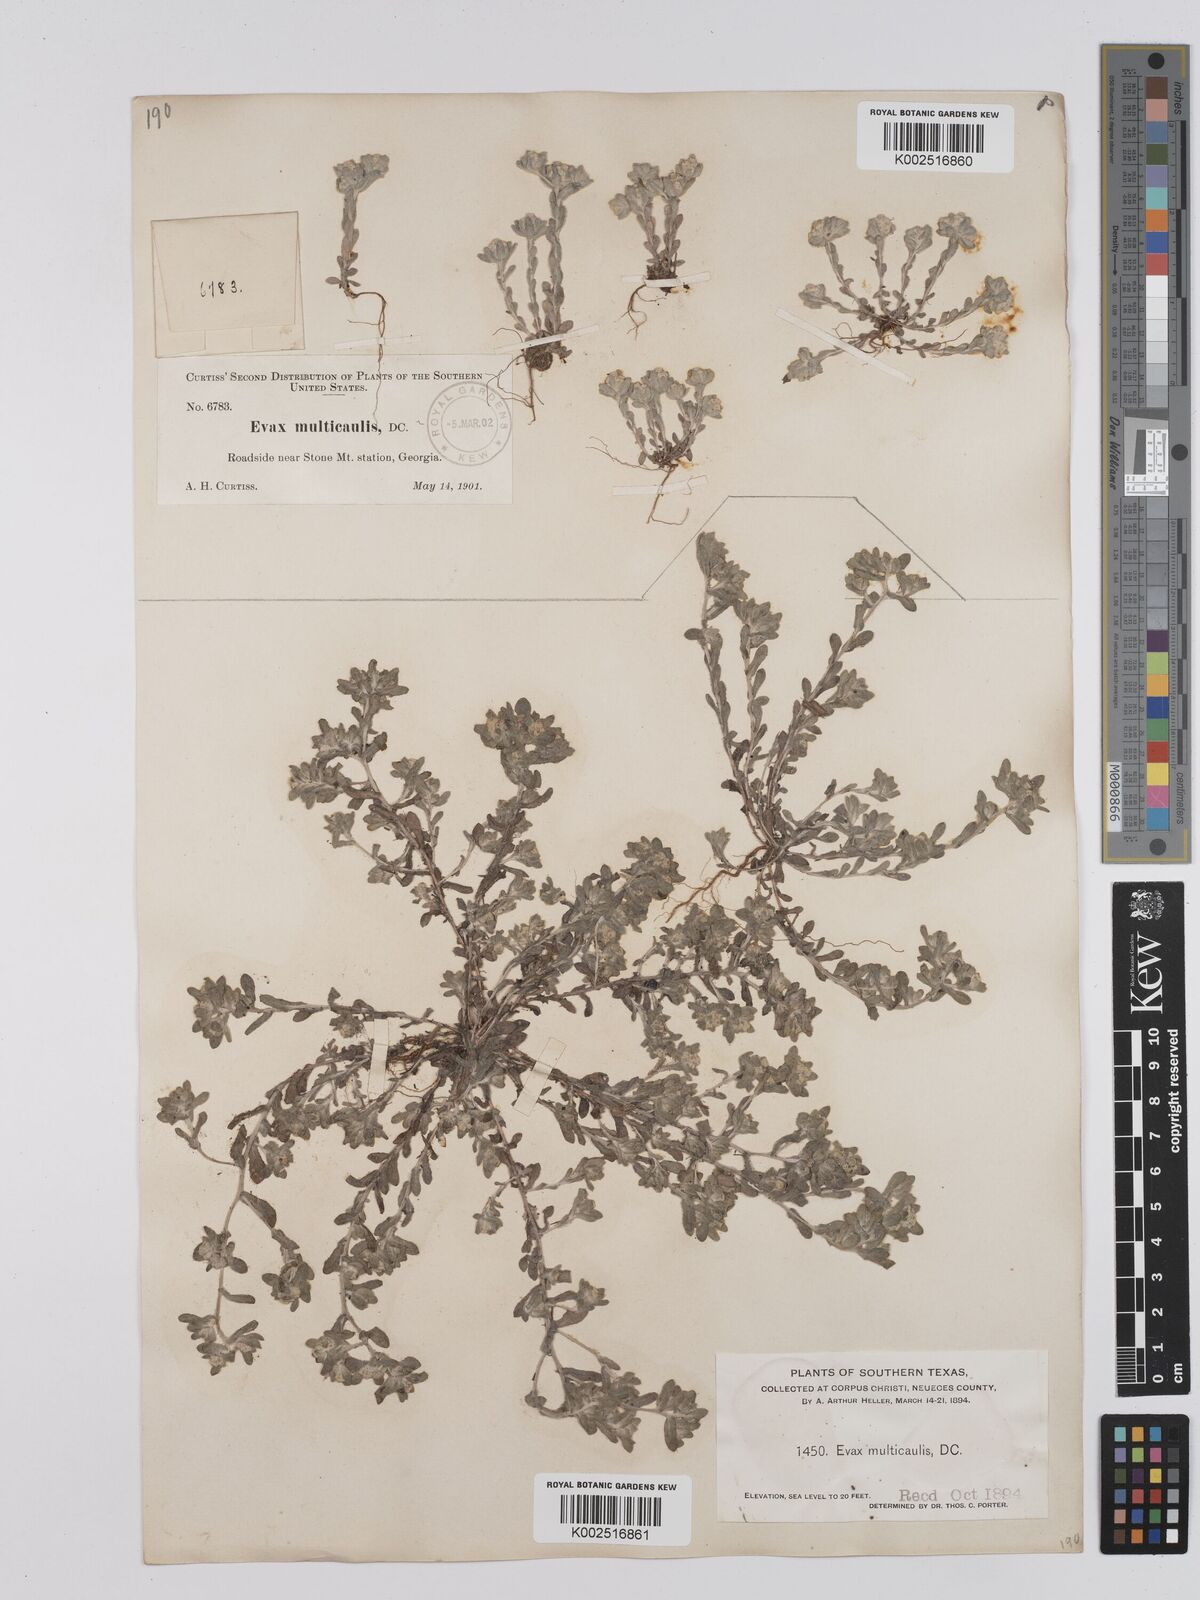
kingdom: Plantae
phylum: Tracheophyta
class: Magnoliopsida
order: Asterales
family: Asteraceae
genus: Bombycilaena
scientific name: Bombycilaena erecta
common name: Micropus
